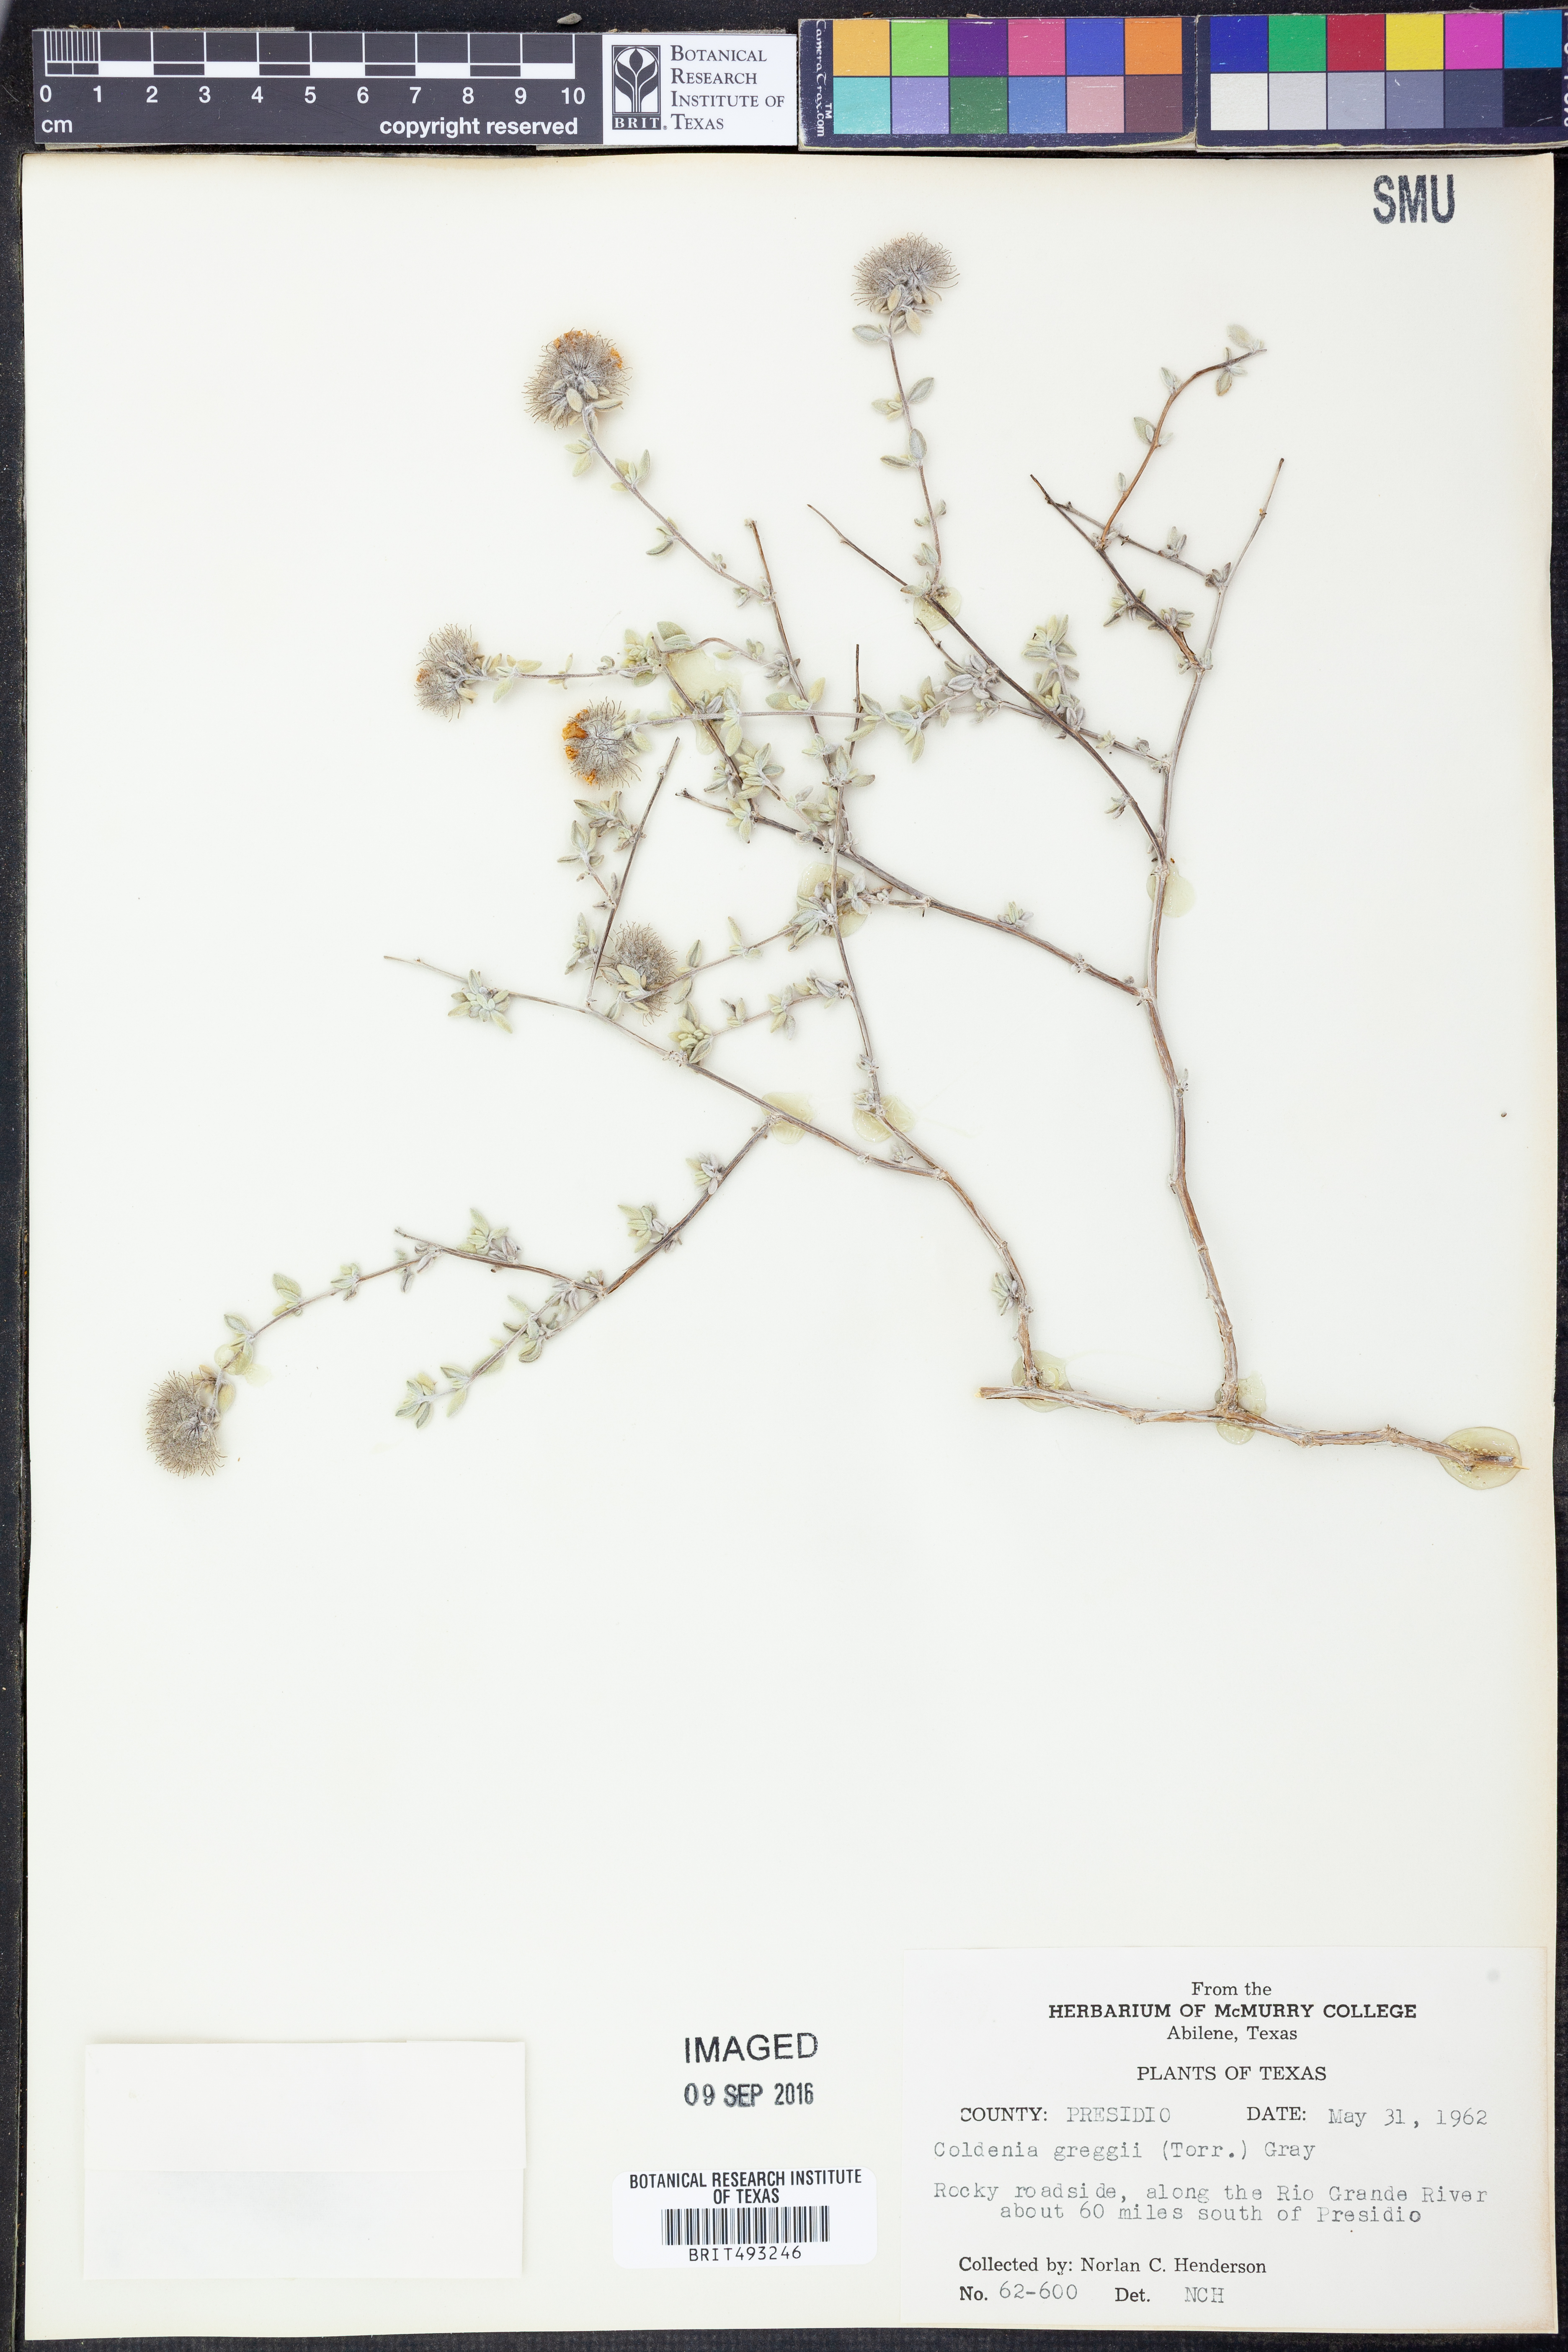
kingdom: Plantae
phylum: Tracheophyta
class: Magnoliopsida
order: Boraginales
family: Ehretiaceae
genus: Tiquilia
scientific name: Tiquilia greggii
